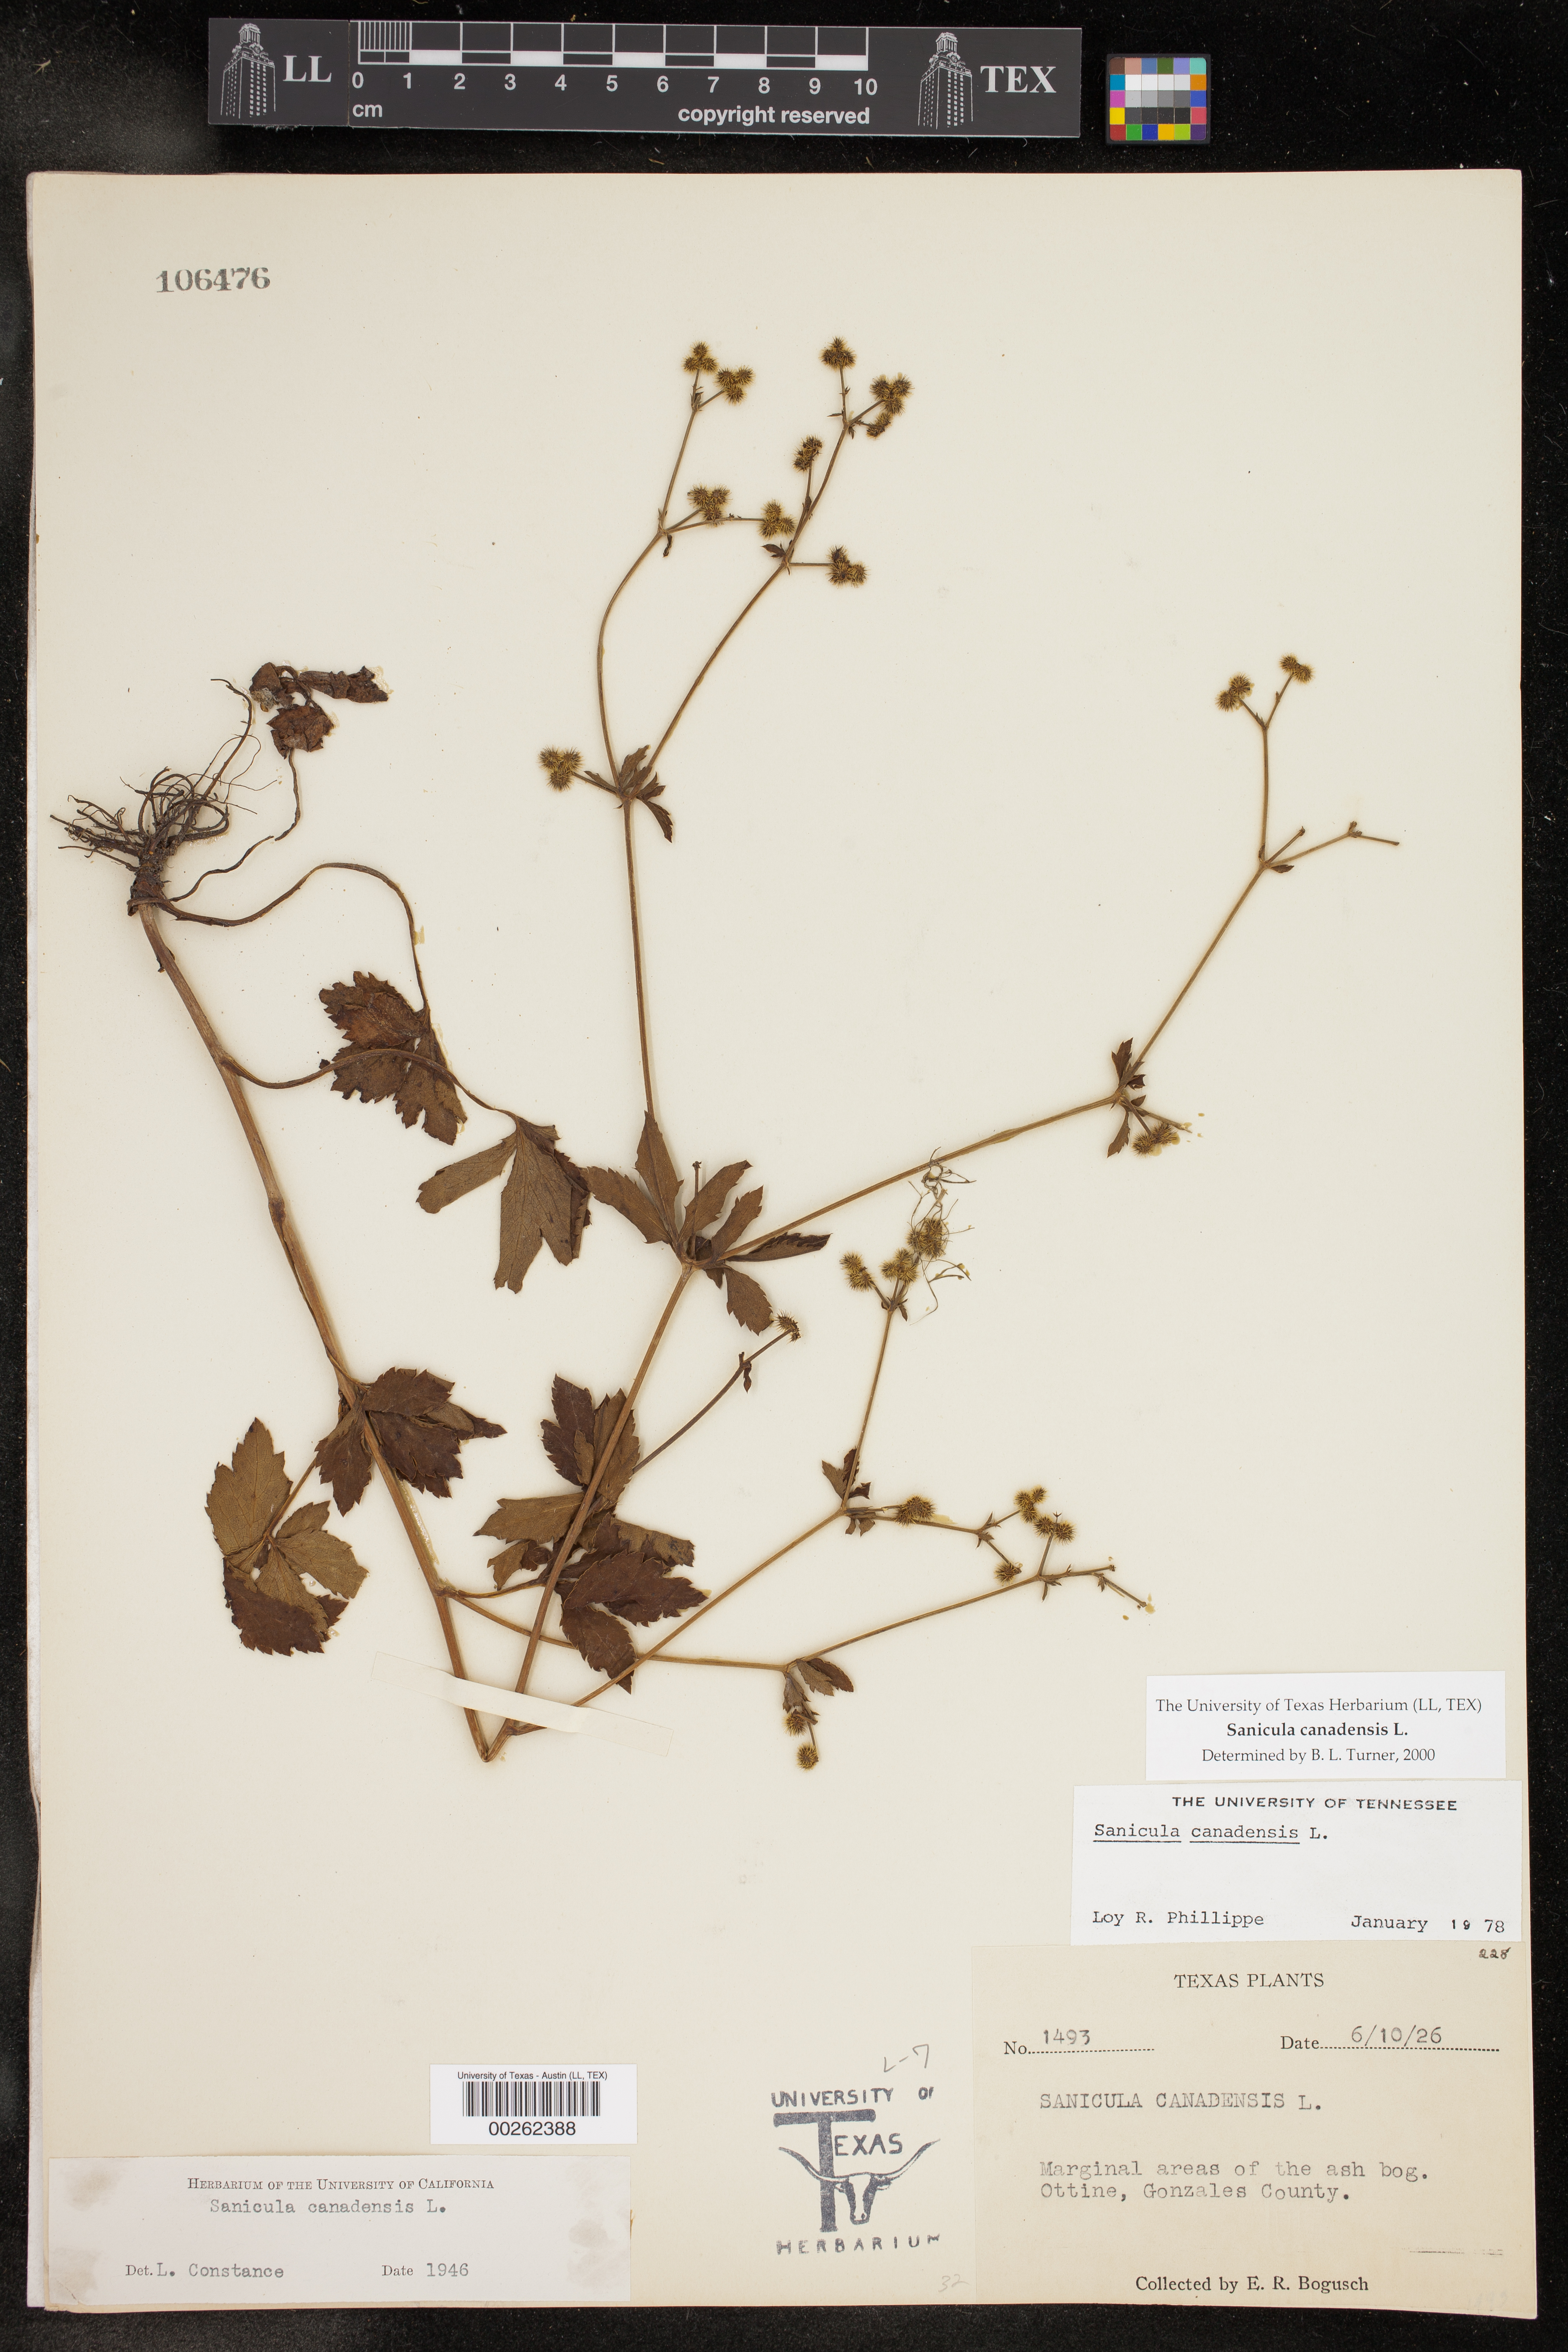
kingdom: Plantae
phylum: Tracheophyta
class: Magnoliopsida
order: Apiales
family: Apiaceae
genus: Sanicula
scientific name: Sanicula canadensis
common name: Canada sanicle
